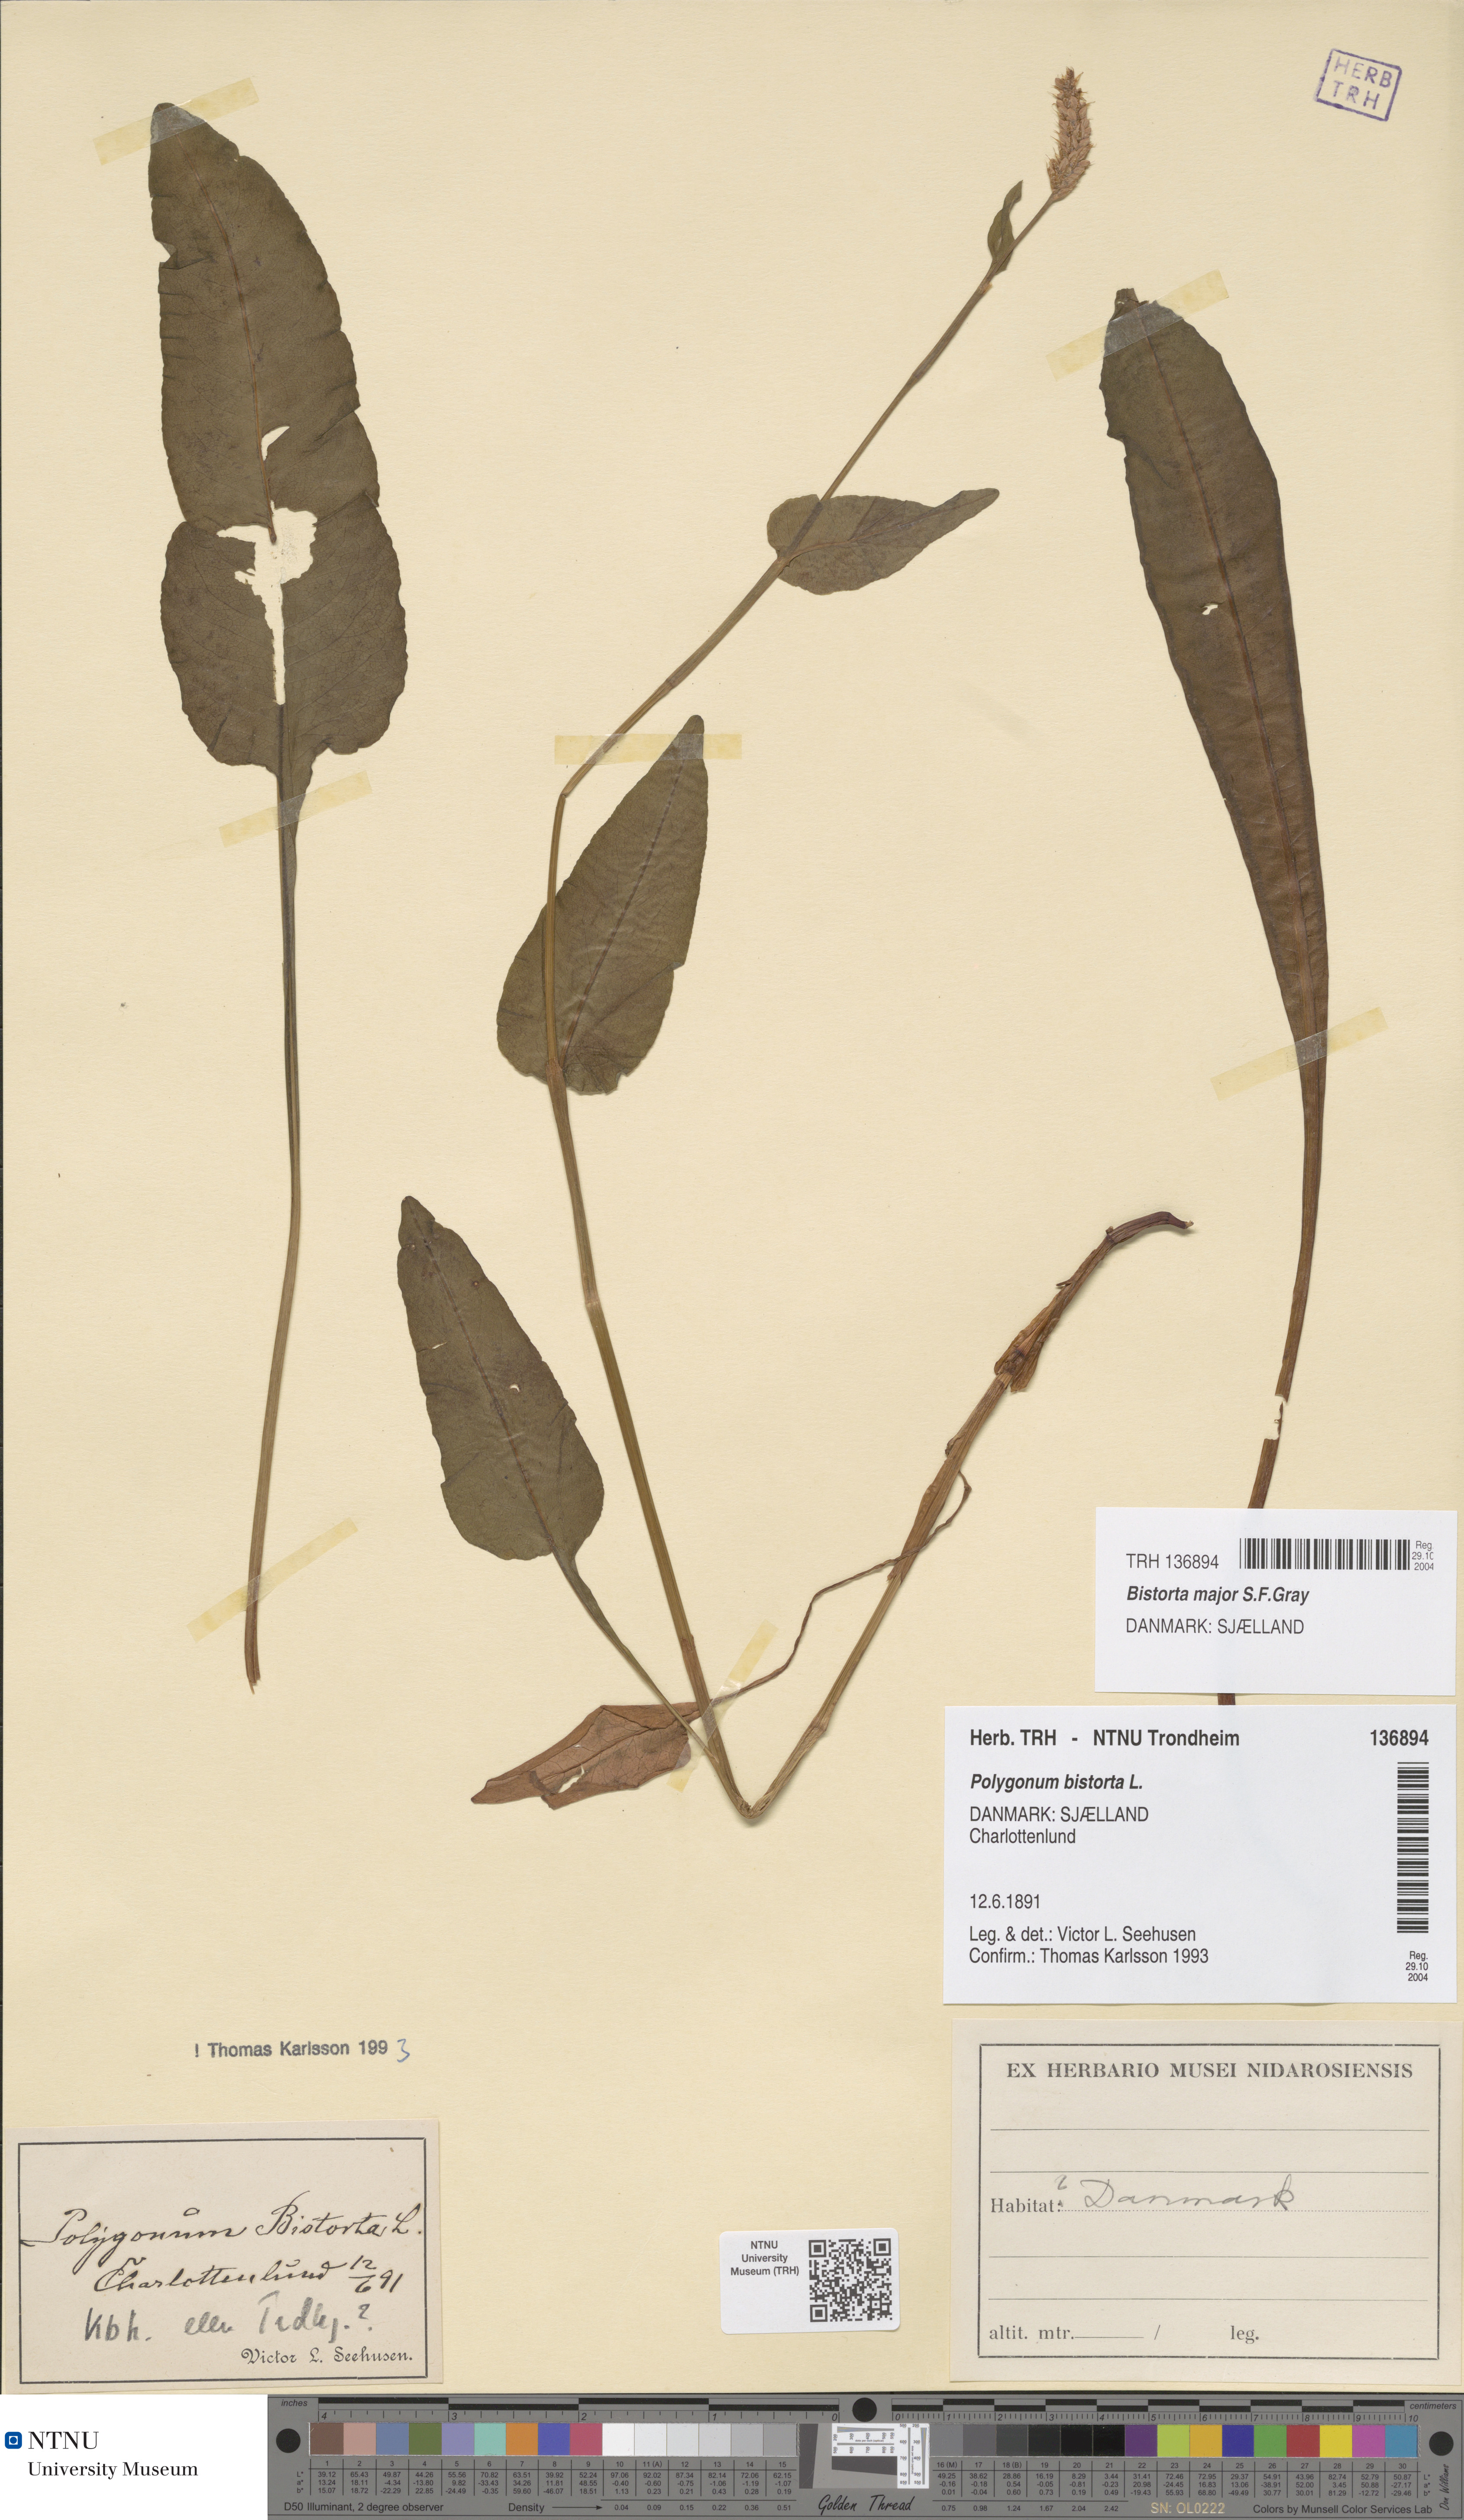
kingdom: Plantae
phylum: Tracheophyta
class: Magnoliopsida
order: Caryophyllales
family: Polygonaceae
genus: Bistorta
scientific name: Bistorta officinalis
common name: Common bistort
